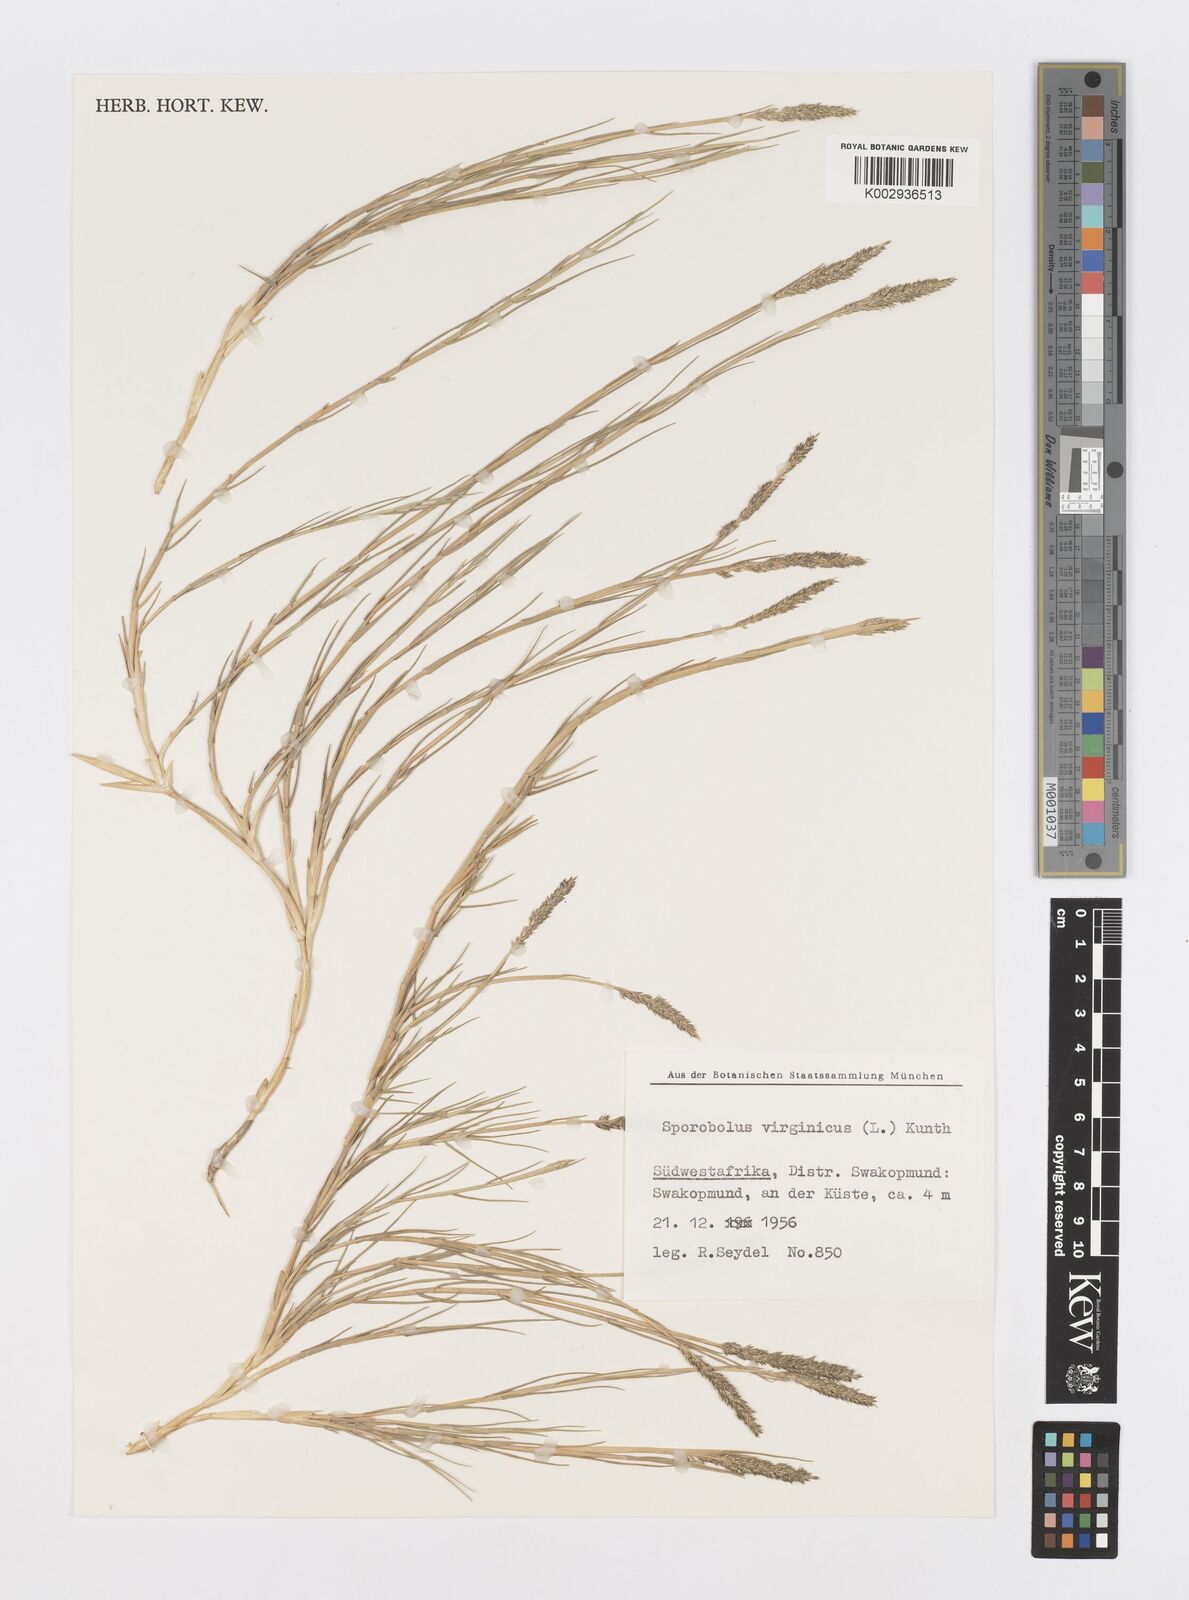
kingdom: Plantae
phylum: Tracheophyta
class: Liliopsida
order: Poales
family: Poaceae
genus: Sporobolus
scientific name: Sporobolus virginicus
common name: Beach dropseed
